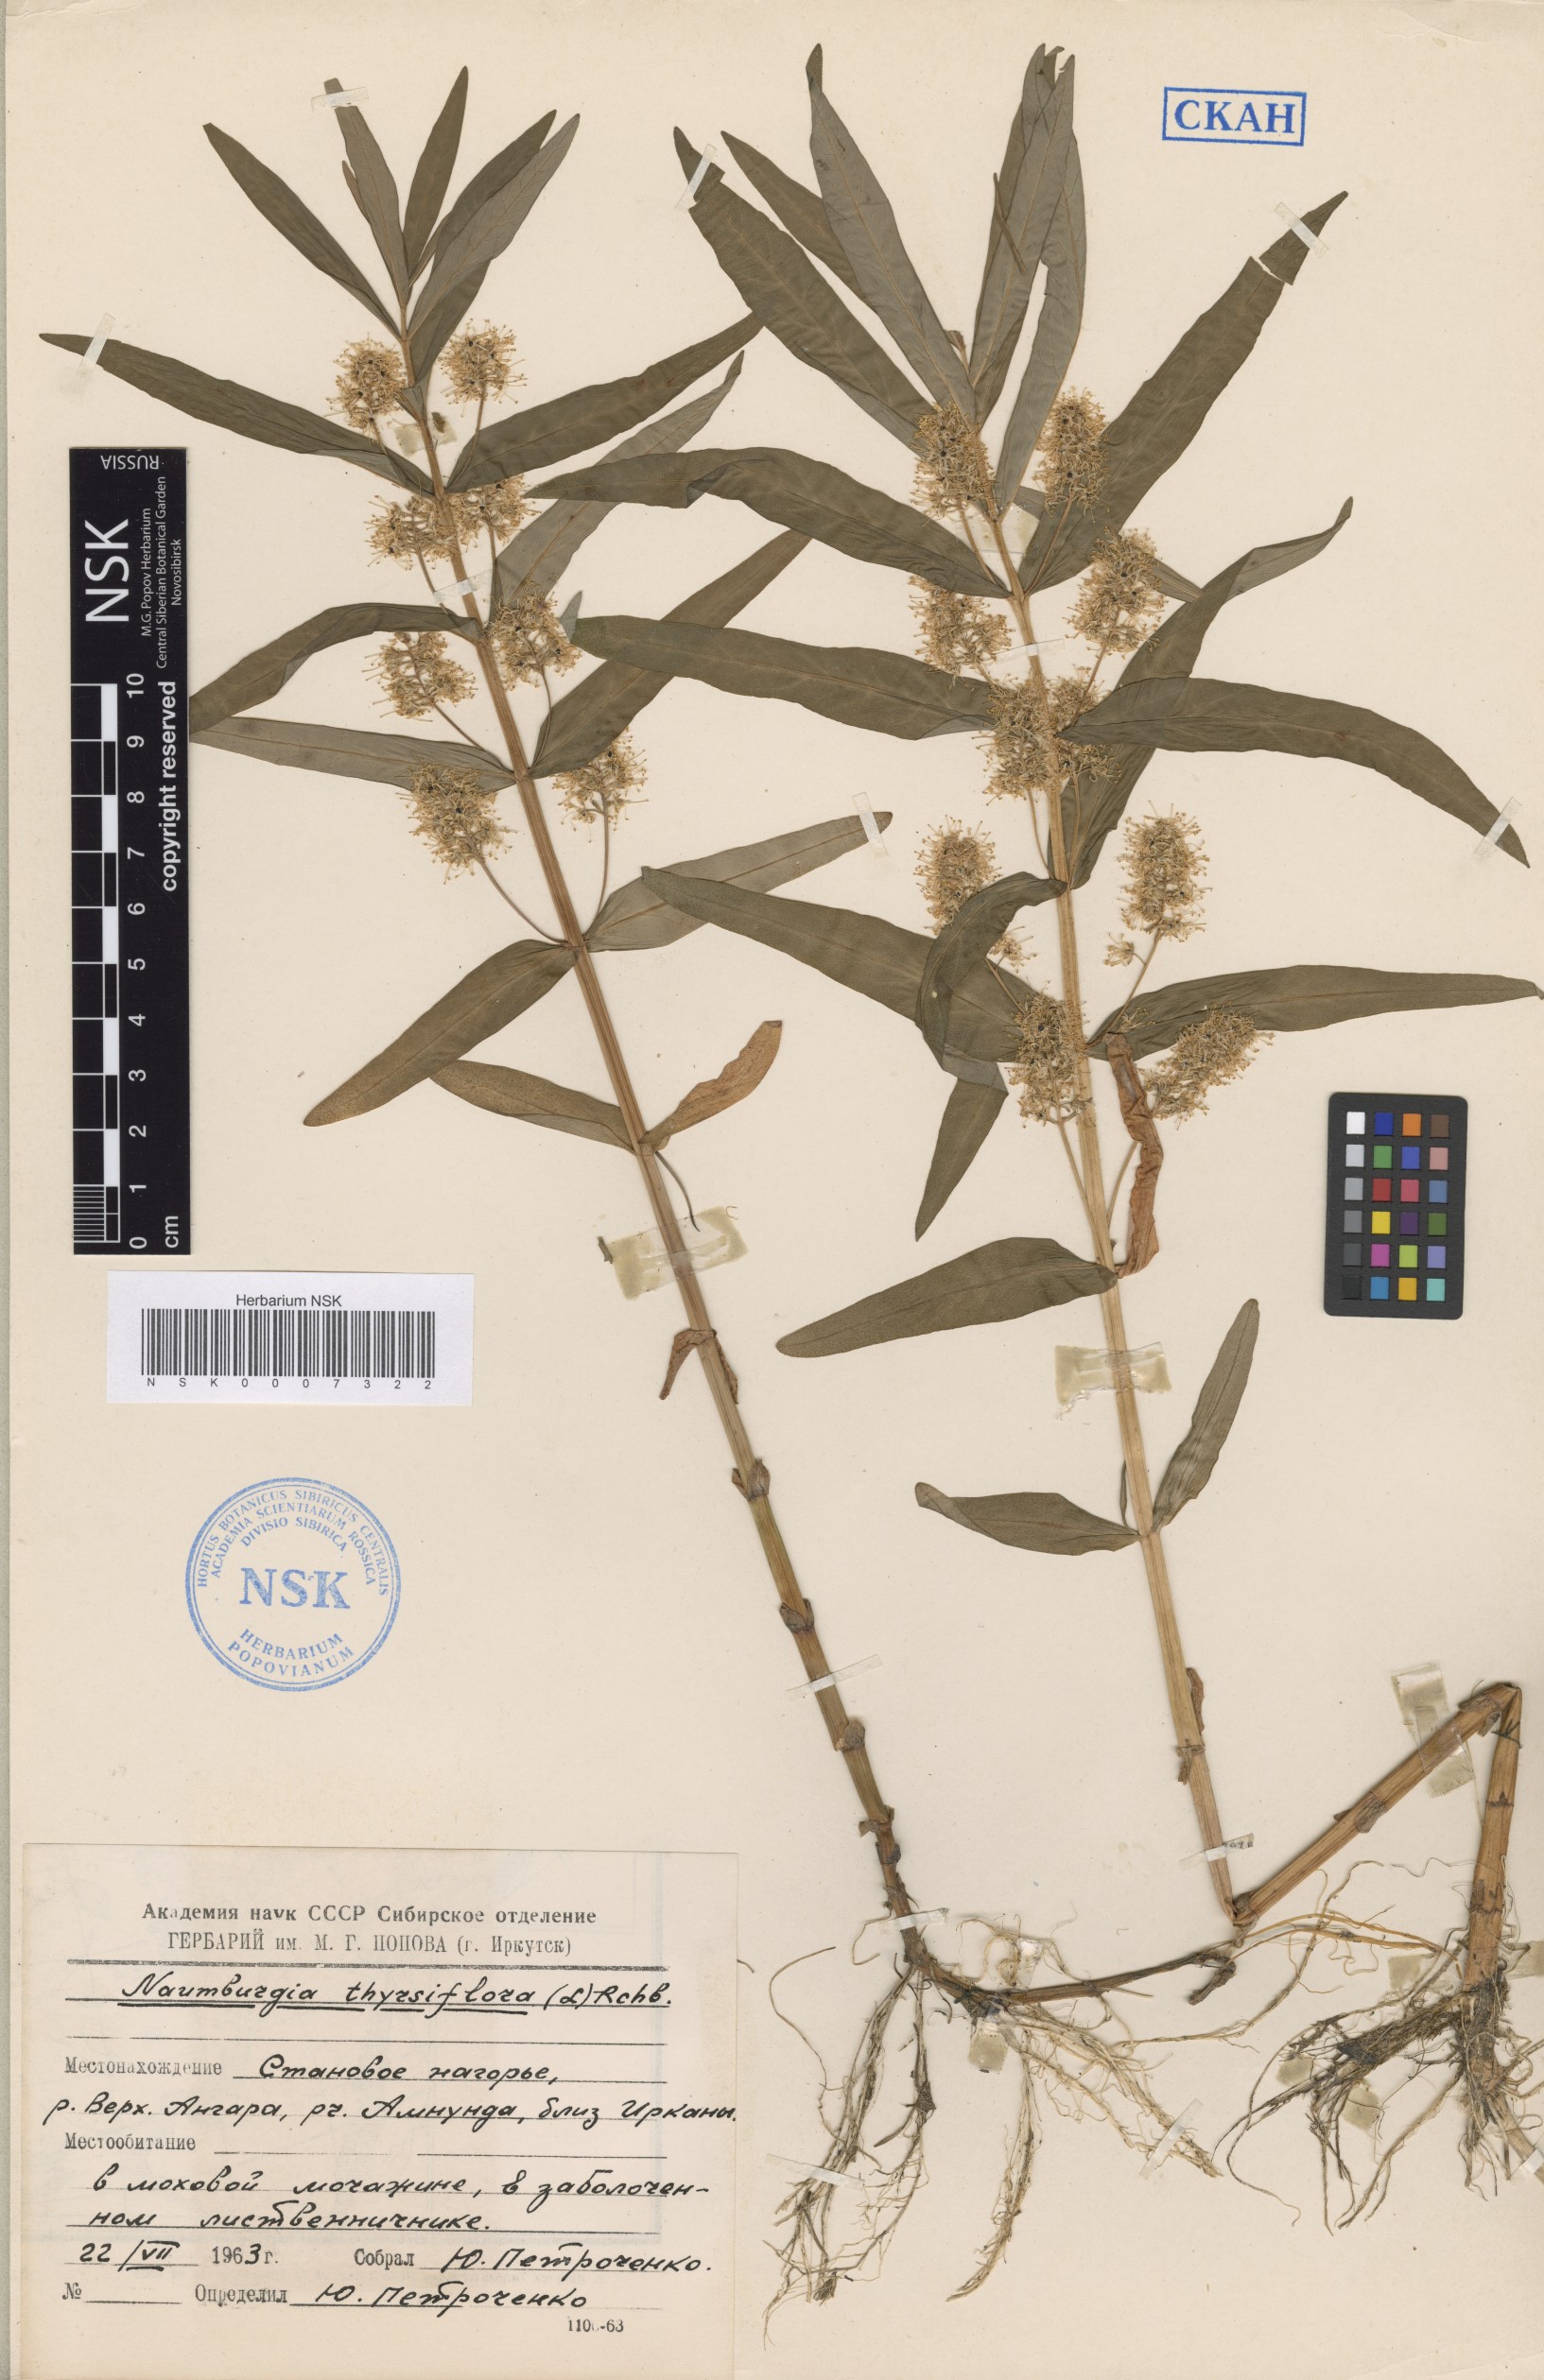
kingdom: Plantae
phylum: Tracheophyta
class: Magnoliopsida
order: Ericales
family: Primulaceae
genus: Lysimachia
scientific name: Lysimachia thyrsiflora
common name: Tufted loosestrife
